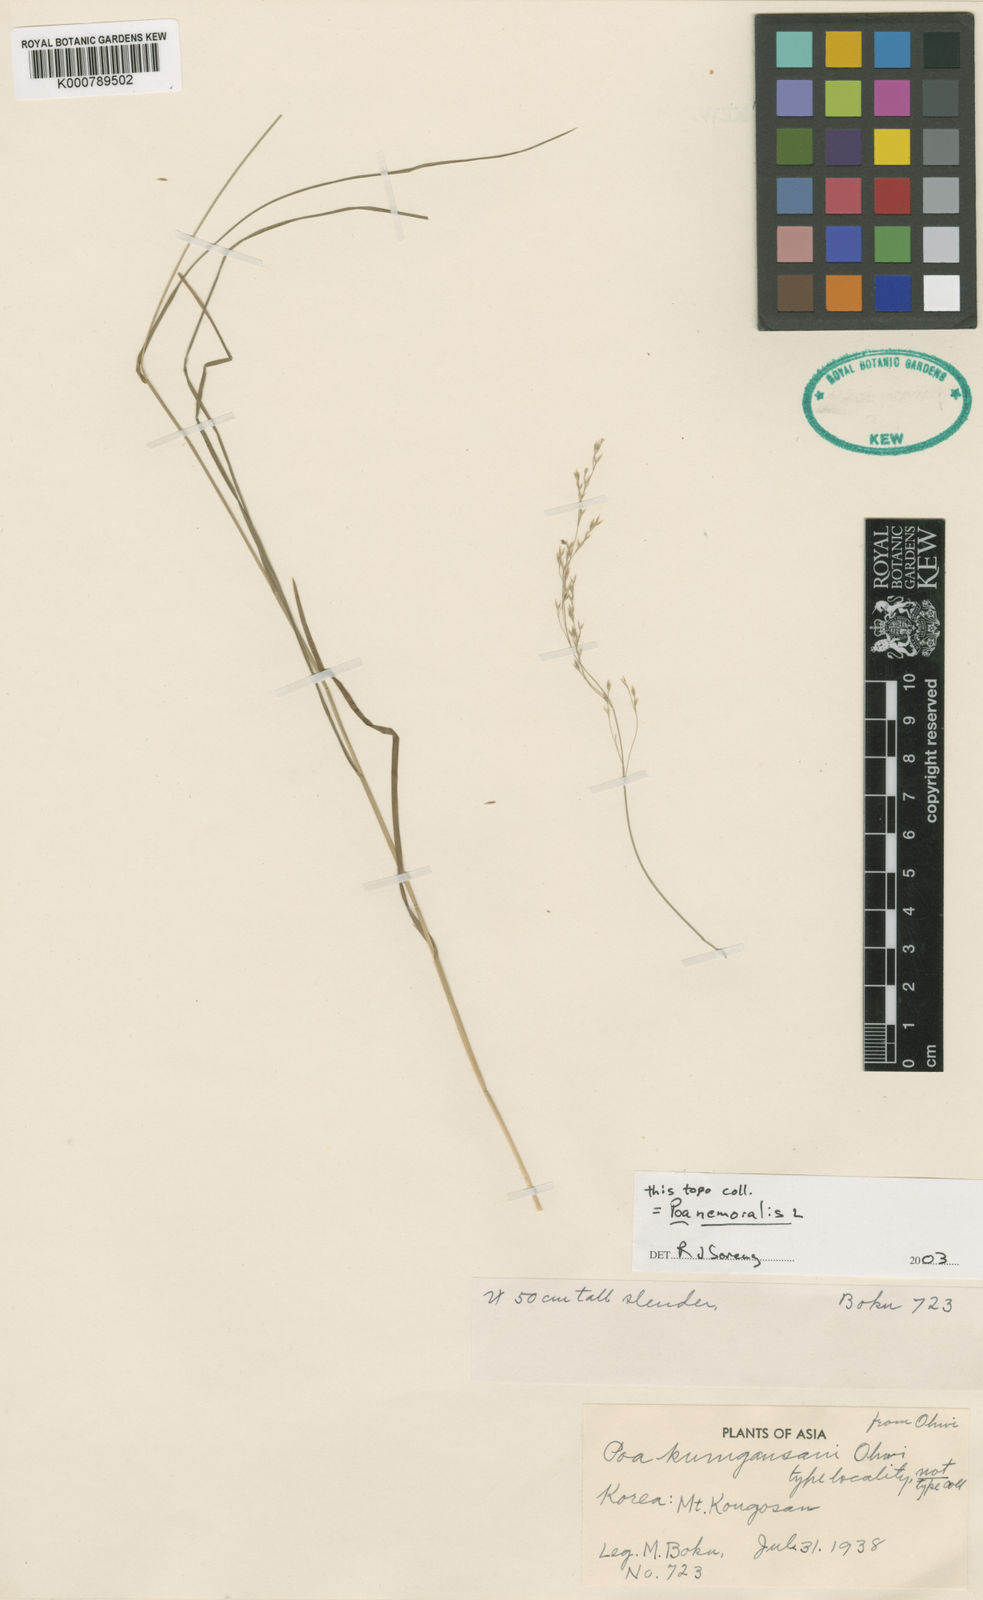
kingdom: Plantae
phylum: Tracheophyta
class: Liliopsida
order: Poales
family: Poaceae
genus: Poa
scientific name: Poa nemoralis
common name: Wood bluegrass
